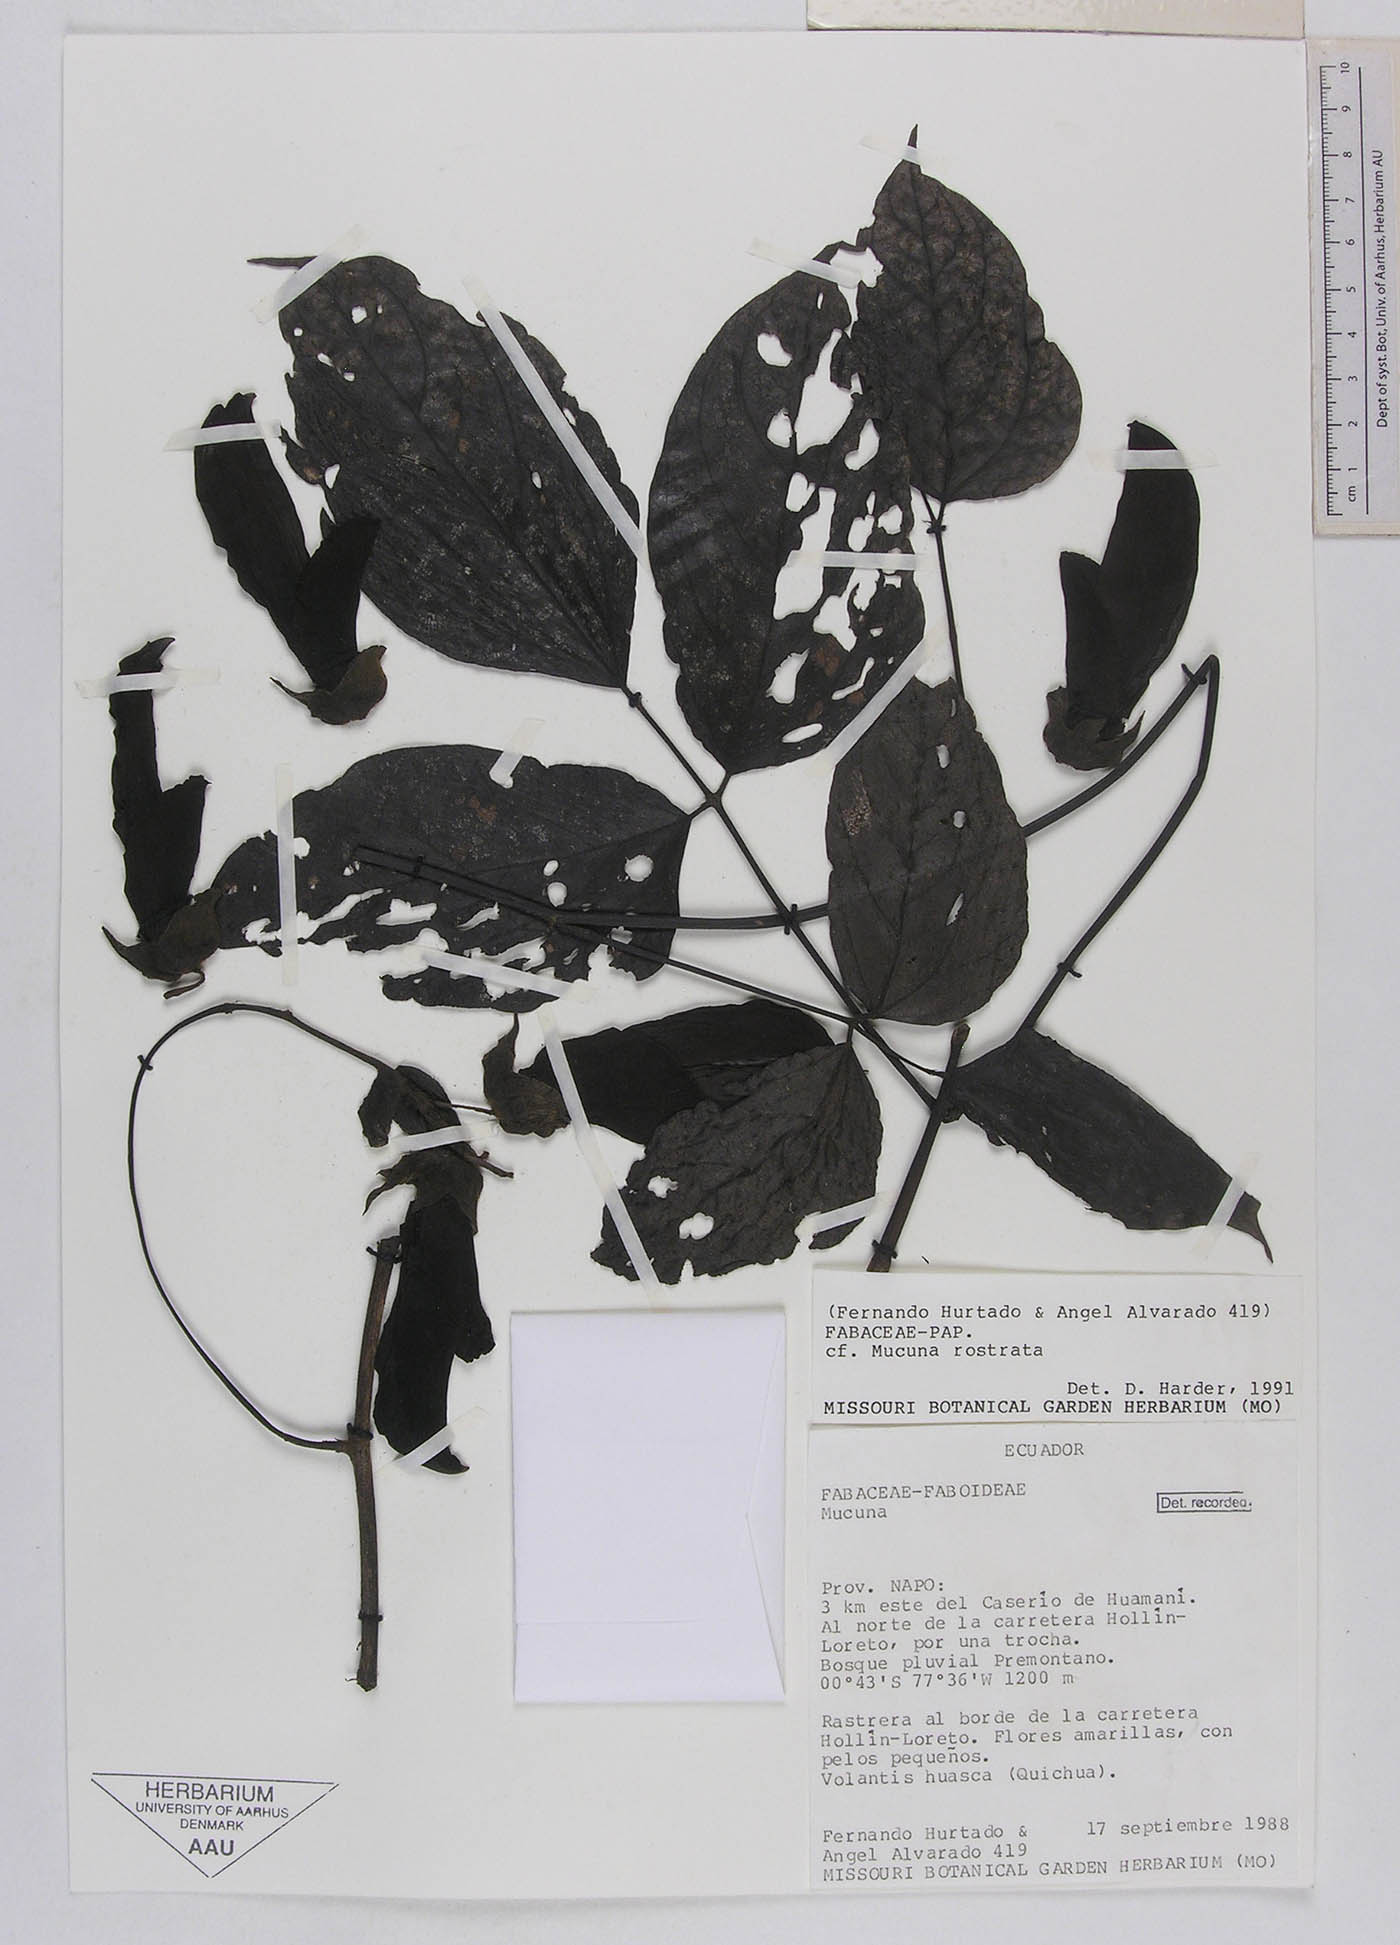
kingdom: Plantae
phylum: Tracheophyta
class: Magnoliopsida
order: Fabales
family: Fabaceae
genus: Mucuna
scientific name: Mucuna ecuatoriana
